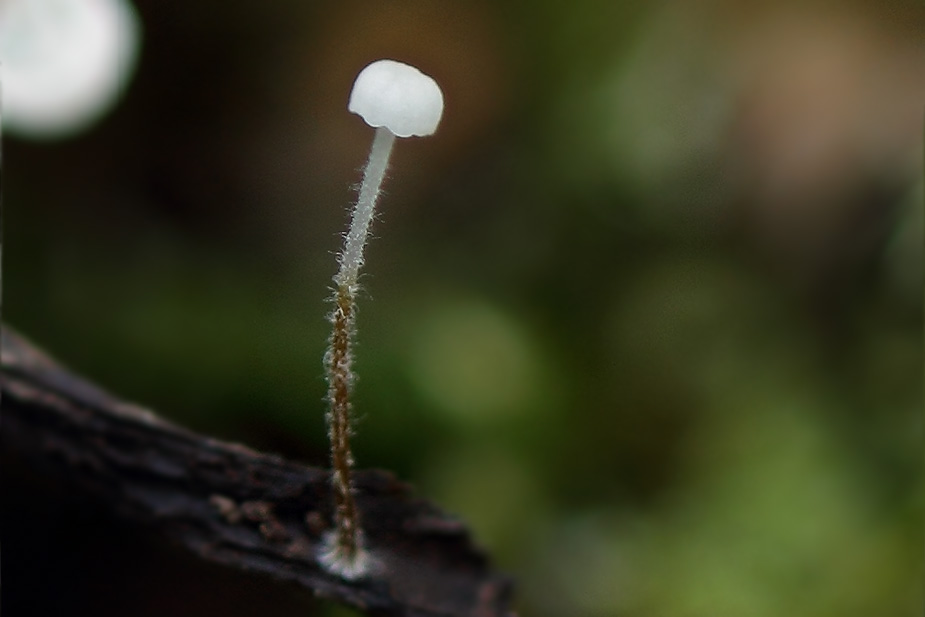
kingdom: Fungi
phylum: Basidiomycota
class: Agaricomycetes
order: Agaricales
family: Physalacriaceae
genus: Rhizomarasmius
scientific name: Rhizomarasmius setosus
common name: bøgeblads-bruskhat
